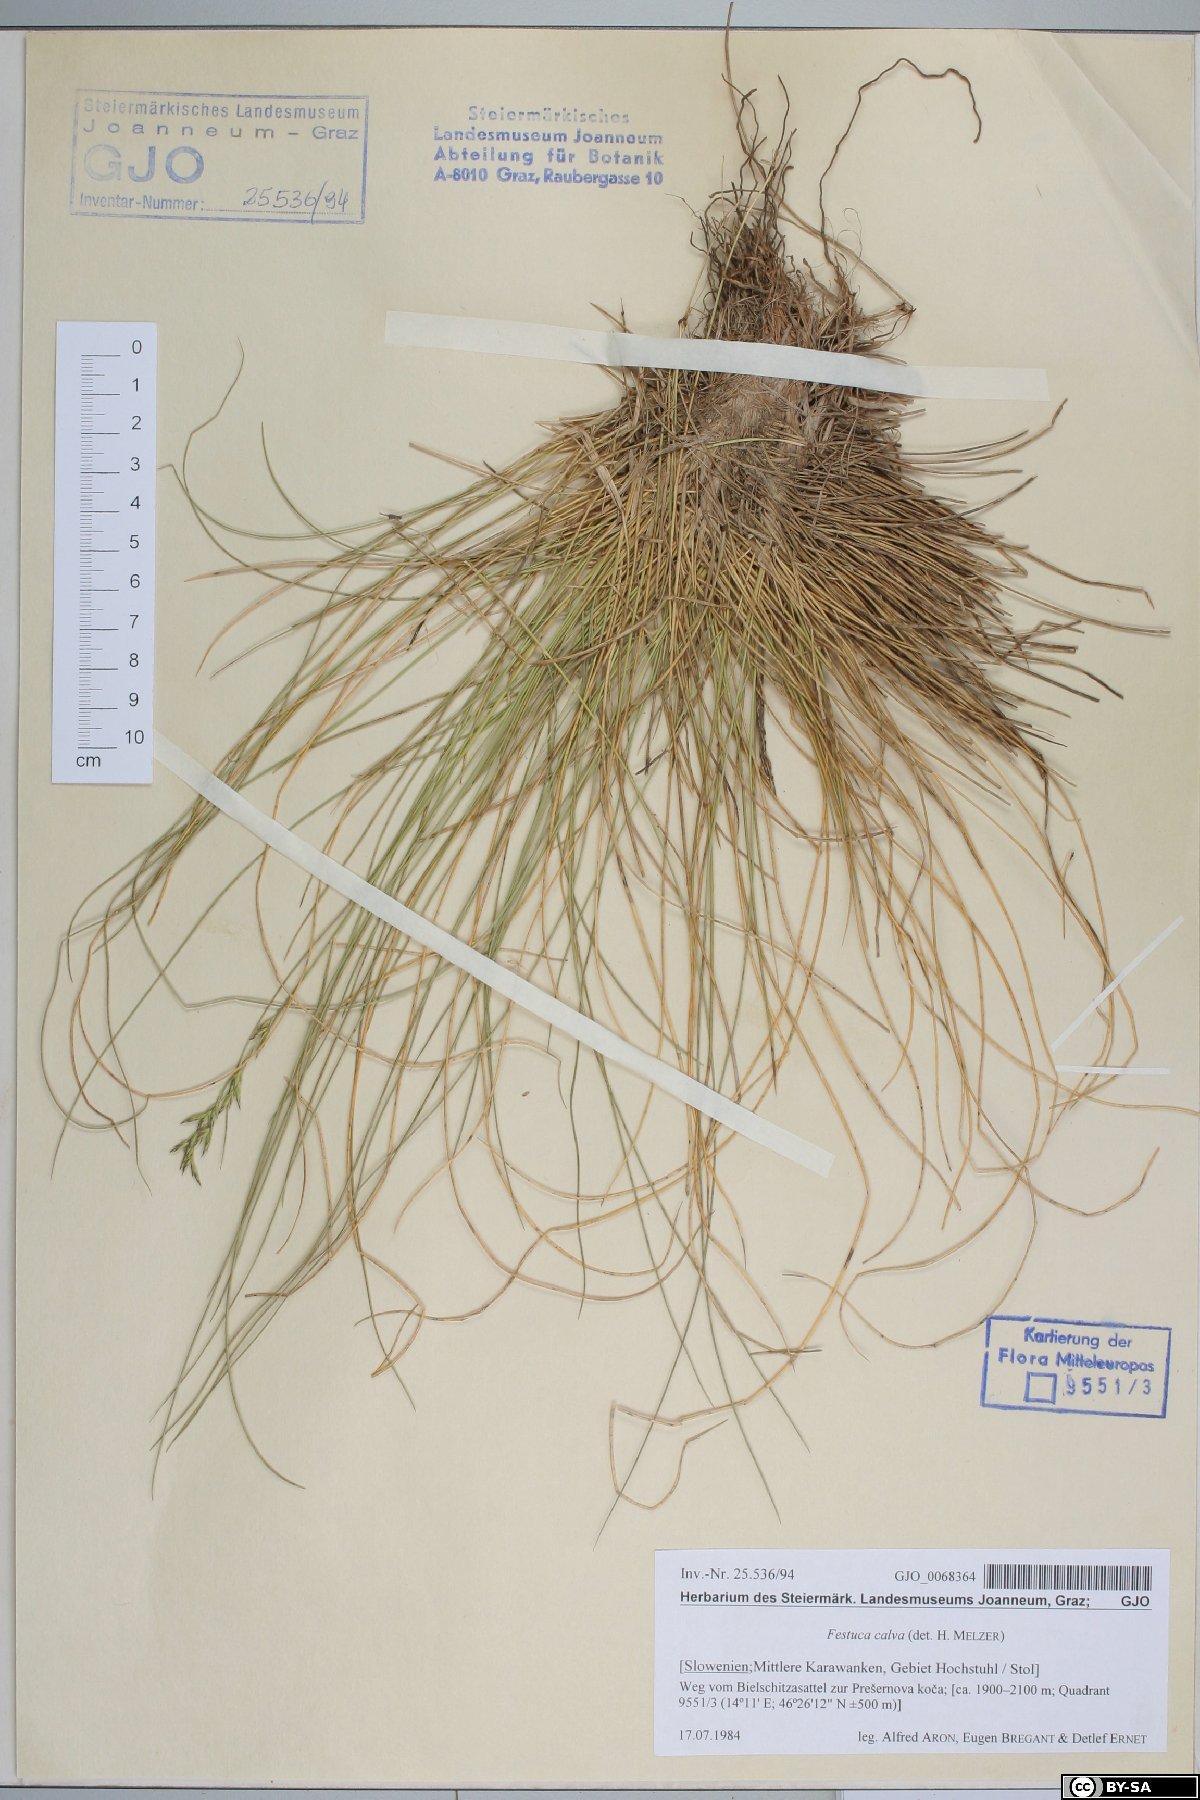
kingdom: Plantae
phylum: Tracheophyta
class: Liliopsida
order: Poales
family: Poaceae
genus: Festuca
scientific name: Festuca calva
